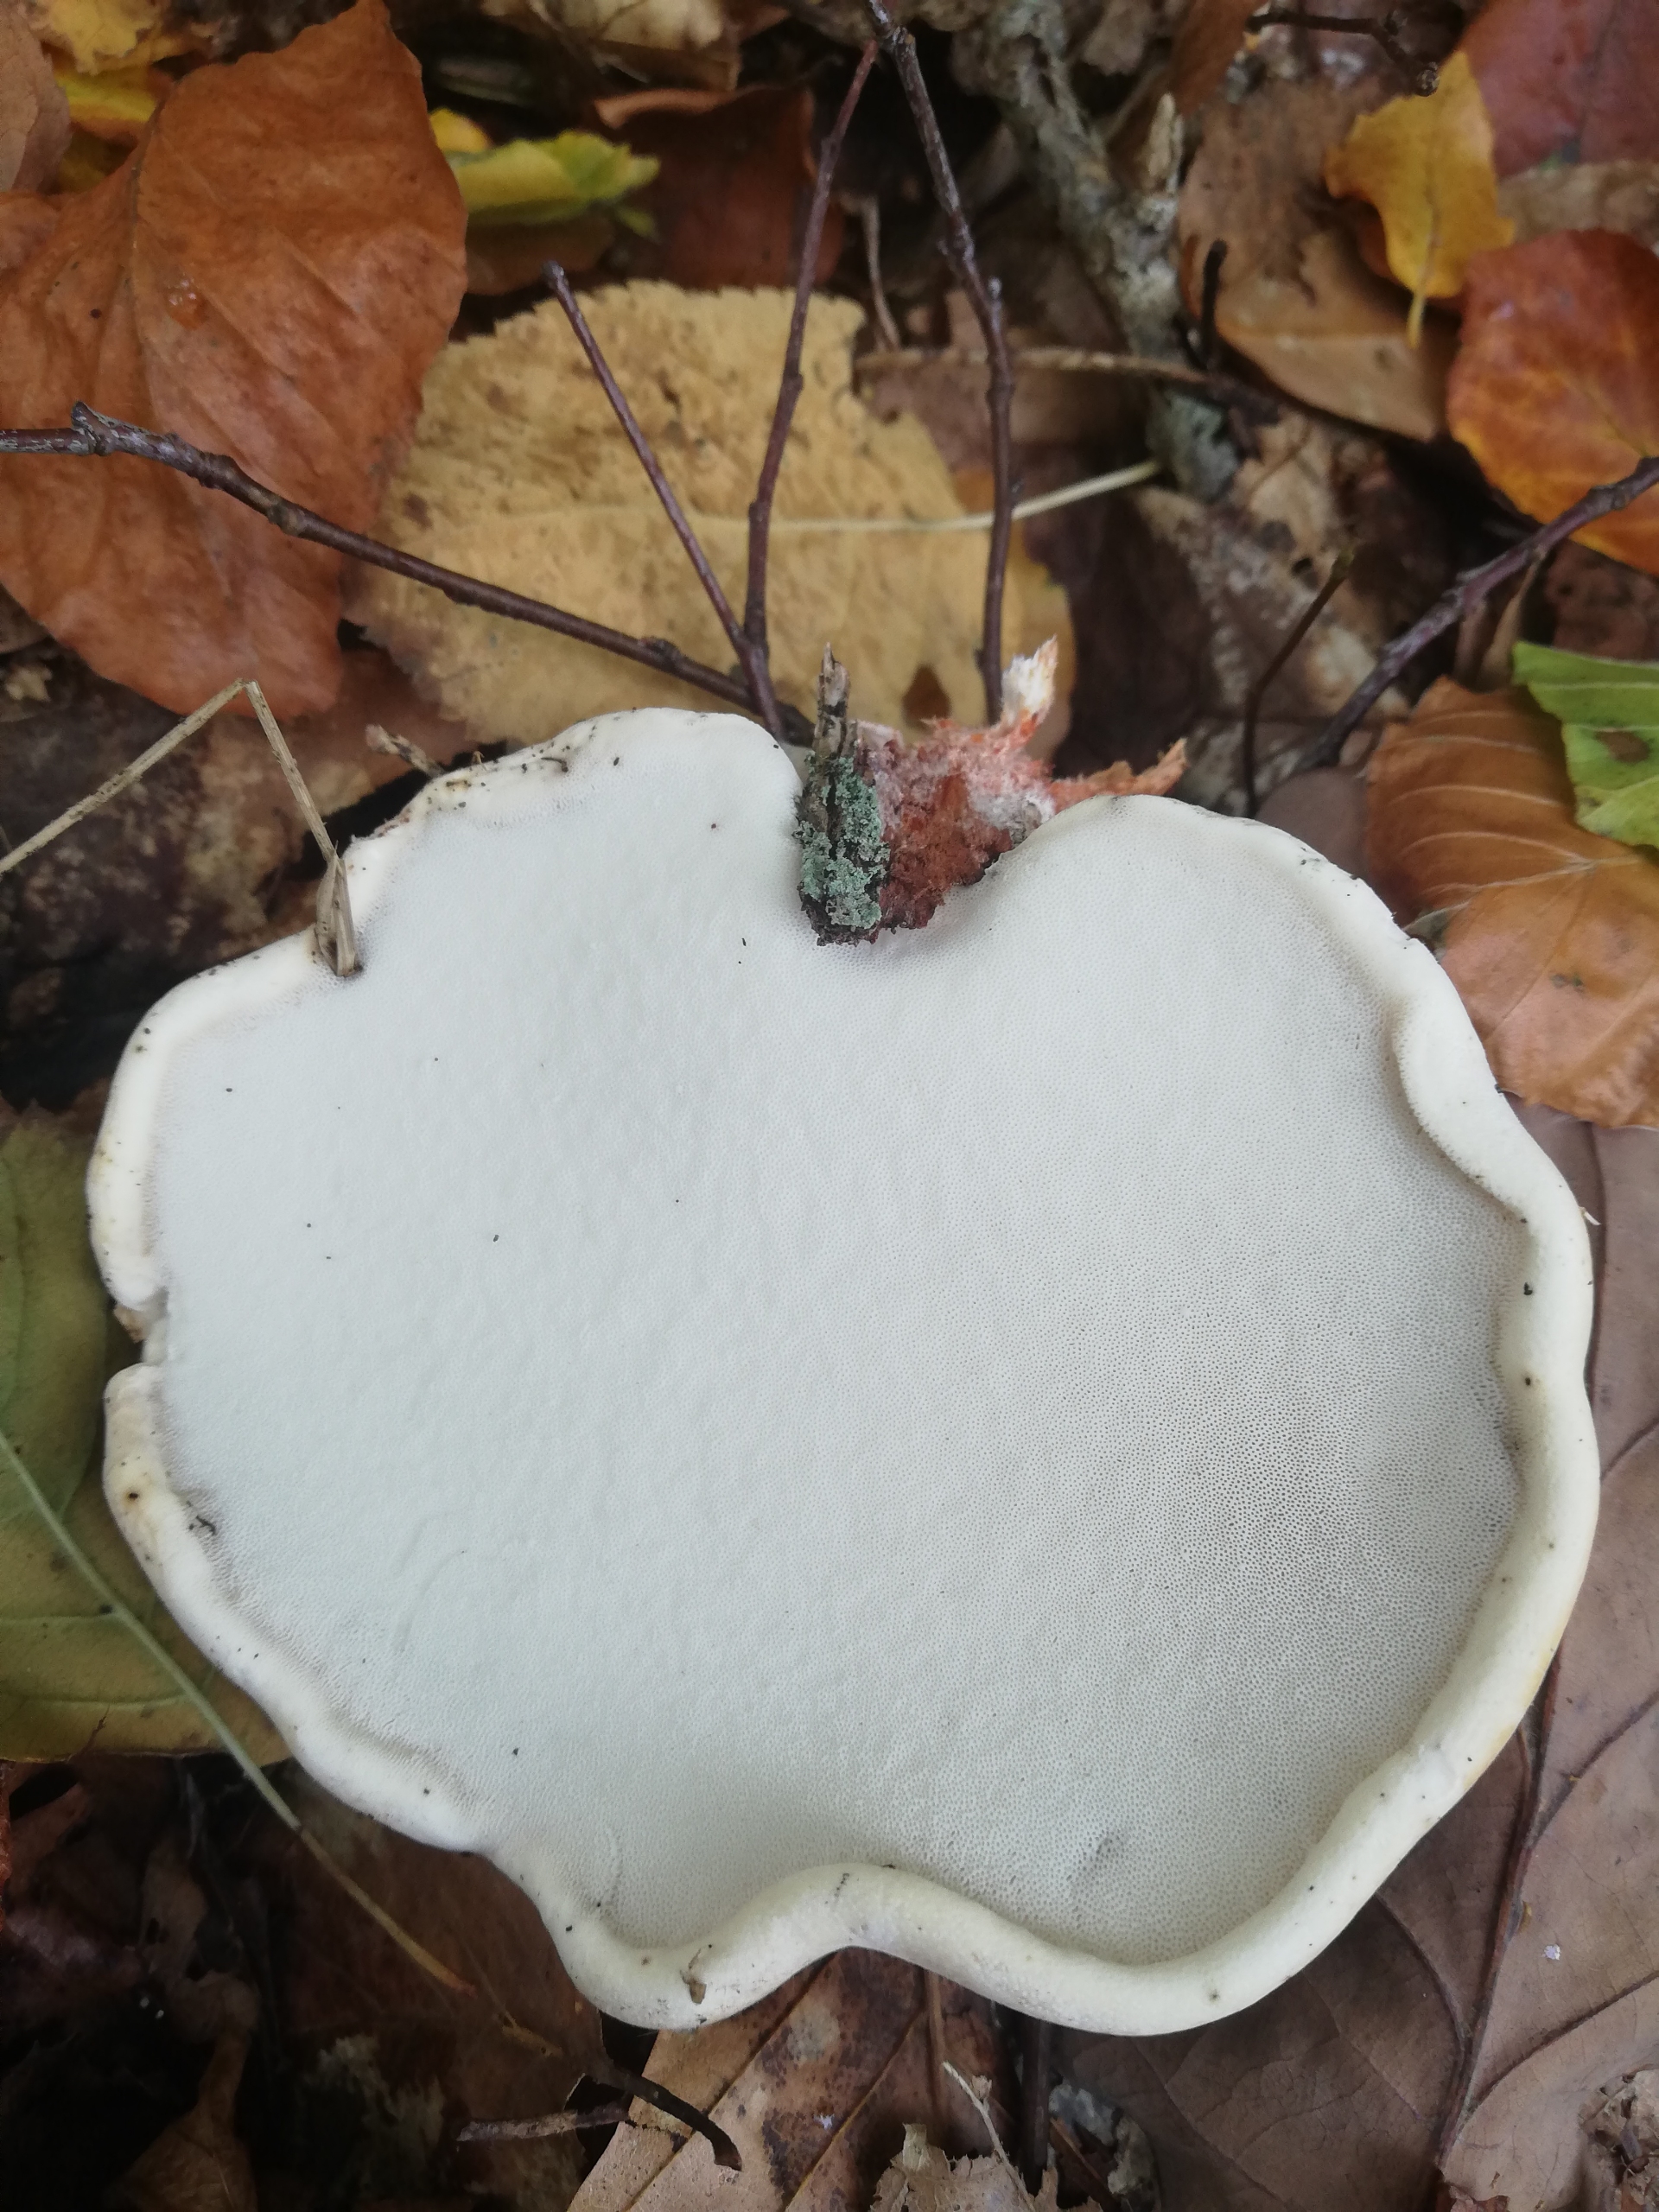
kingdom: Fungi
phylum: Basidiomycota
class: Agaricomycetes
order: Polyporales
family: Fomitopsidaceae
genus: Fomitopsis
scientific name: Fomitopsis betulina
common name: Birkeporesvamp
